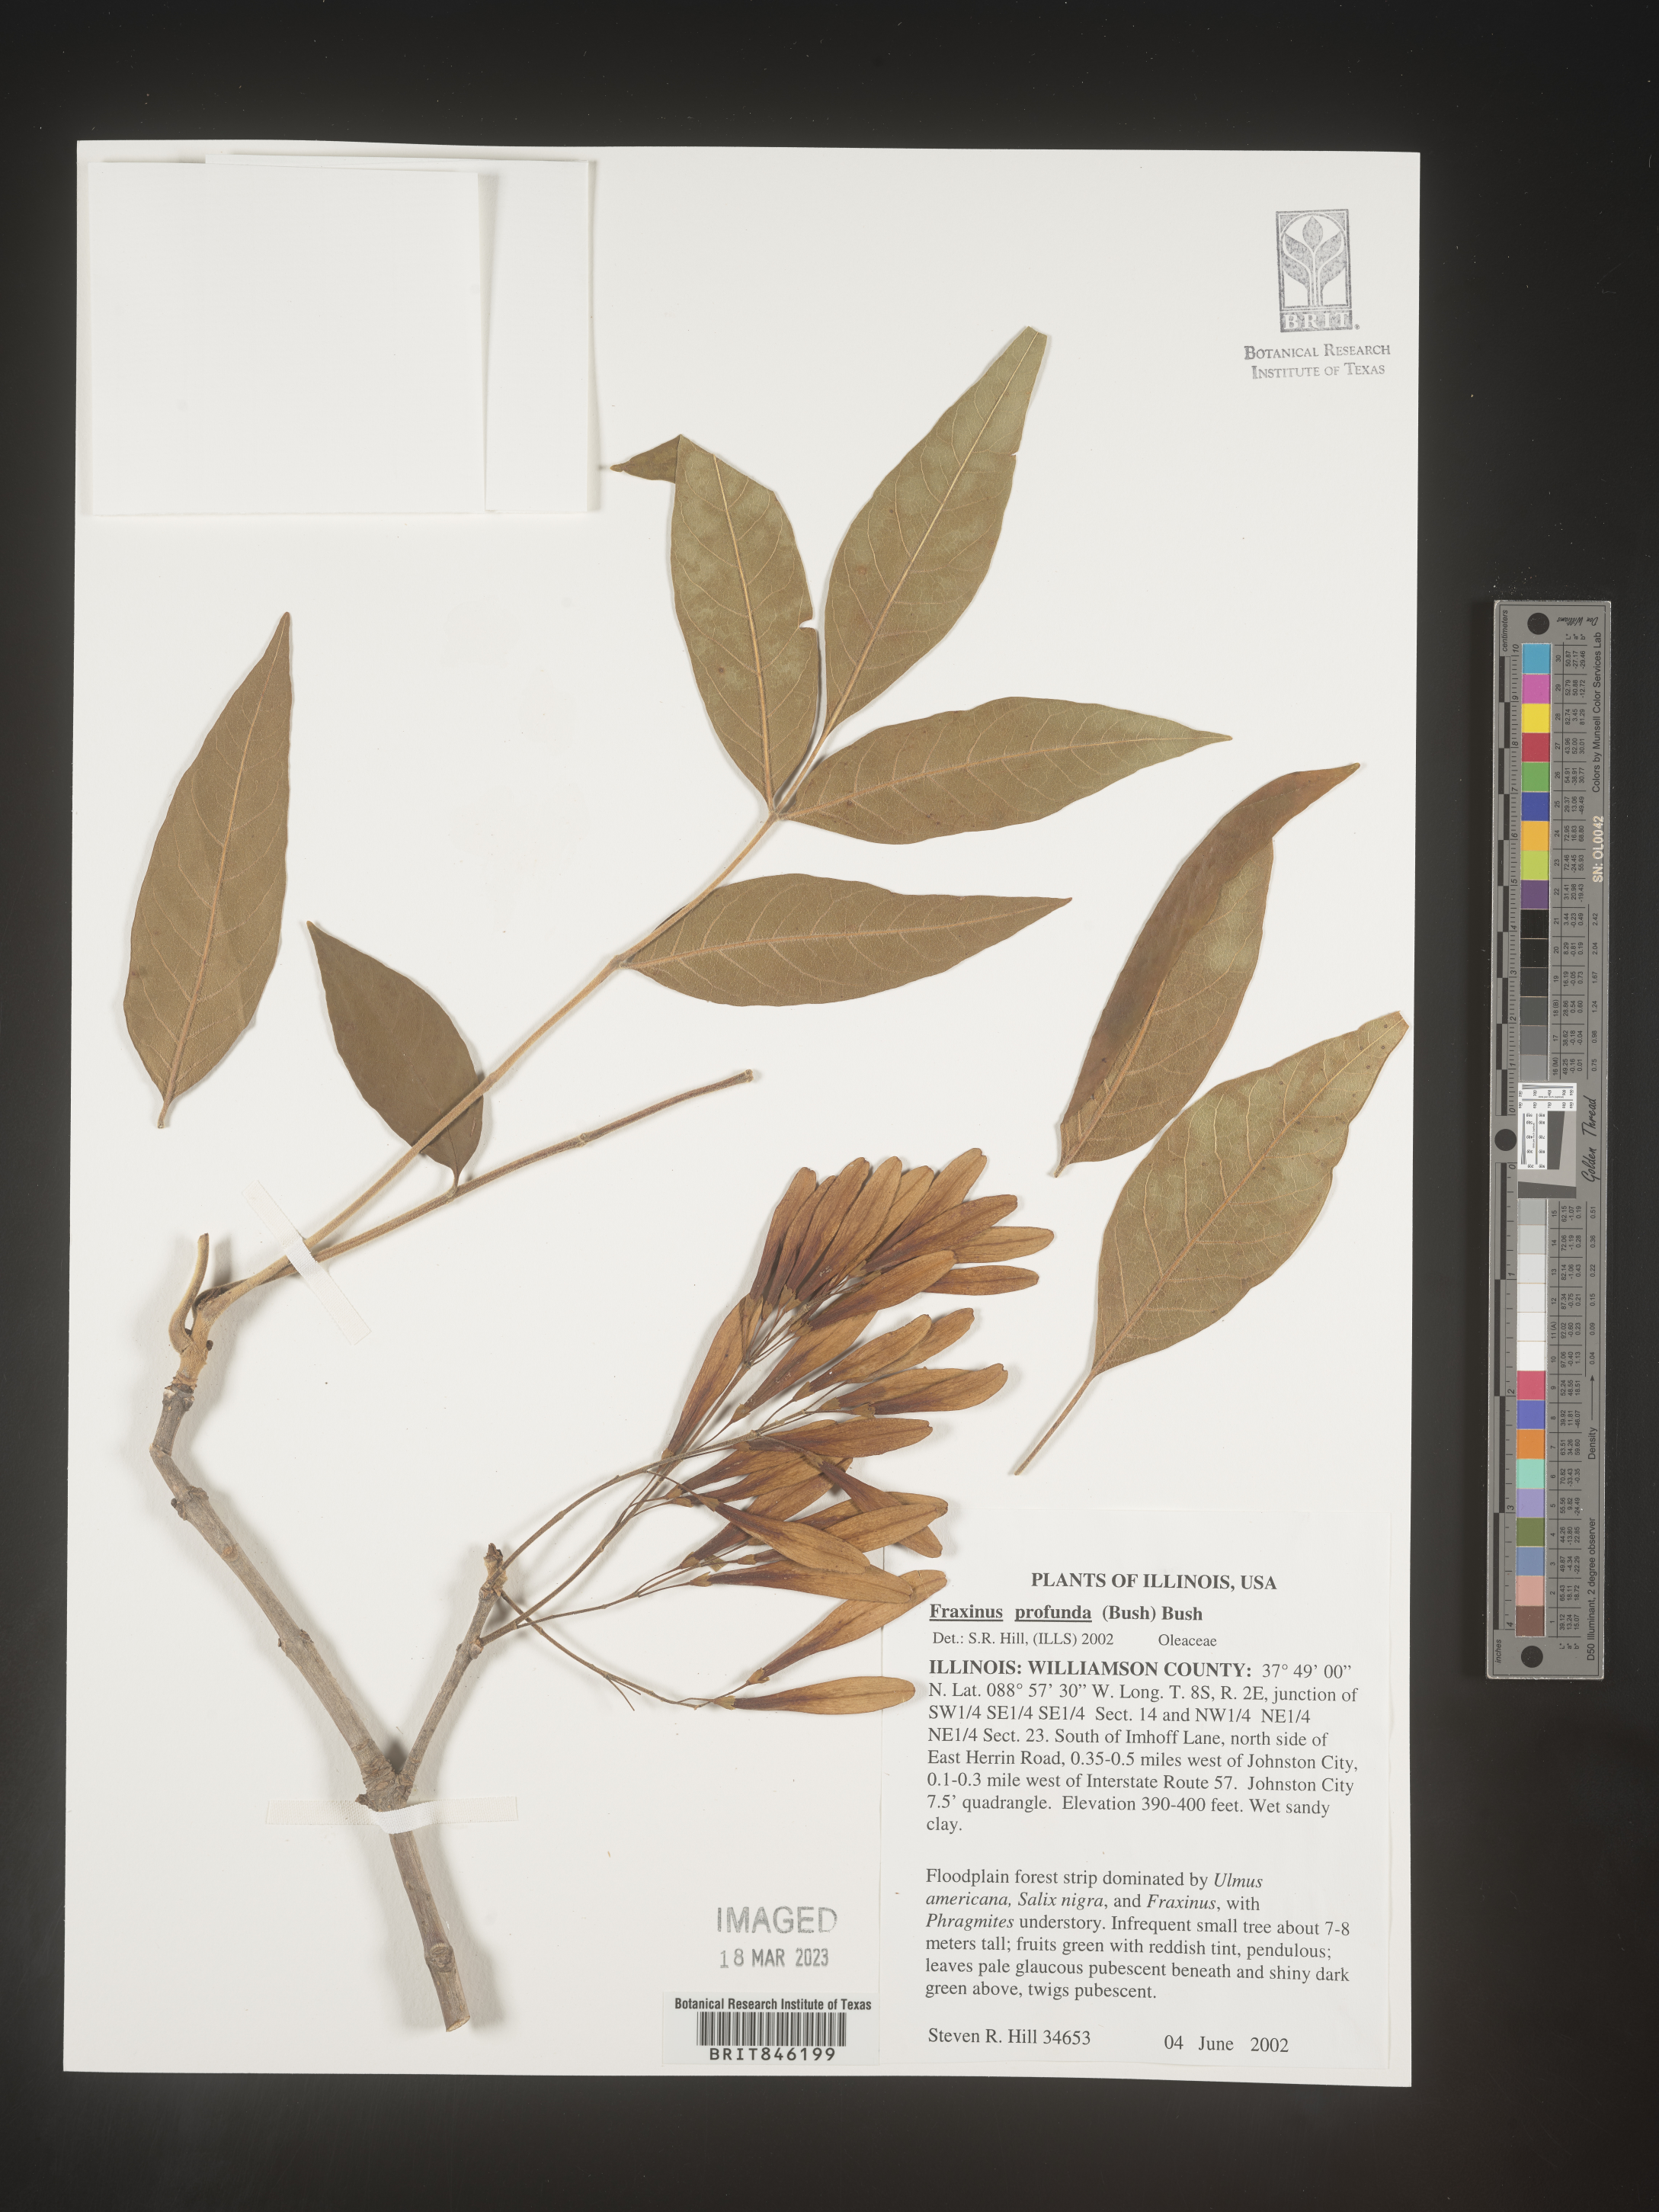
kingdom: Plantae
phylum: Tracheophyta
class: Magnoliopsida
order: Lamiales
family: Oleaceae
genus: Fraxinus
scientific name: Fraxinus profunda
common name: Pumpkin ash
